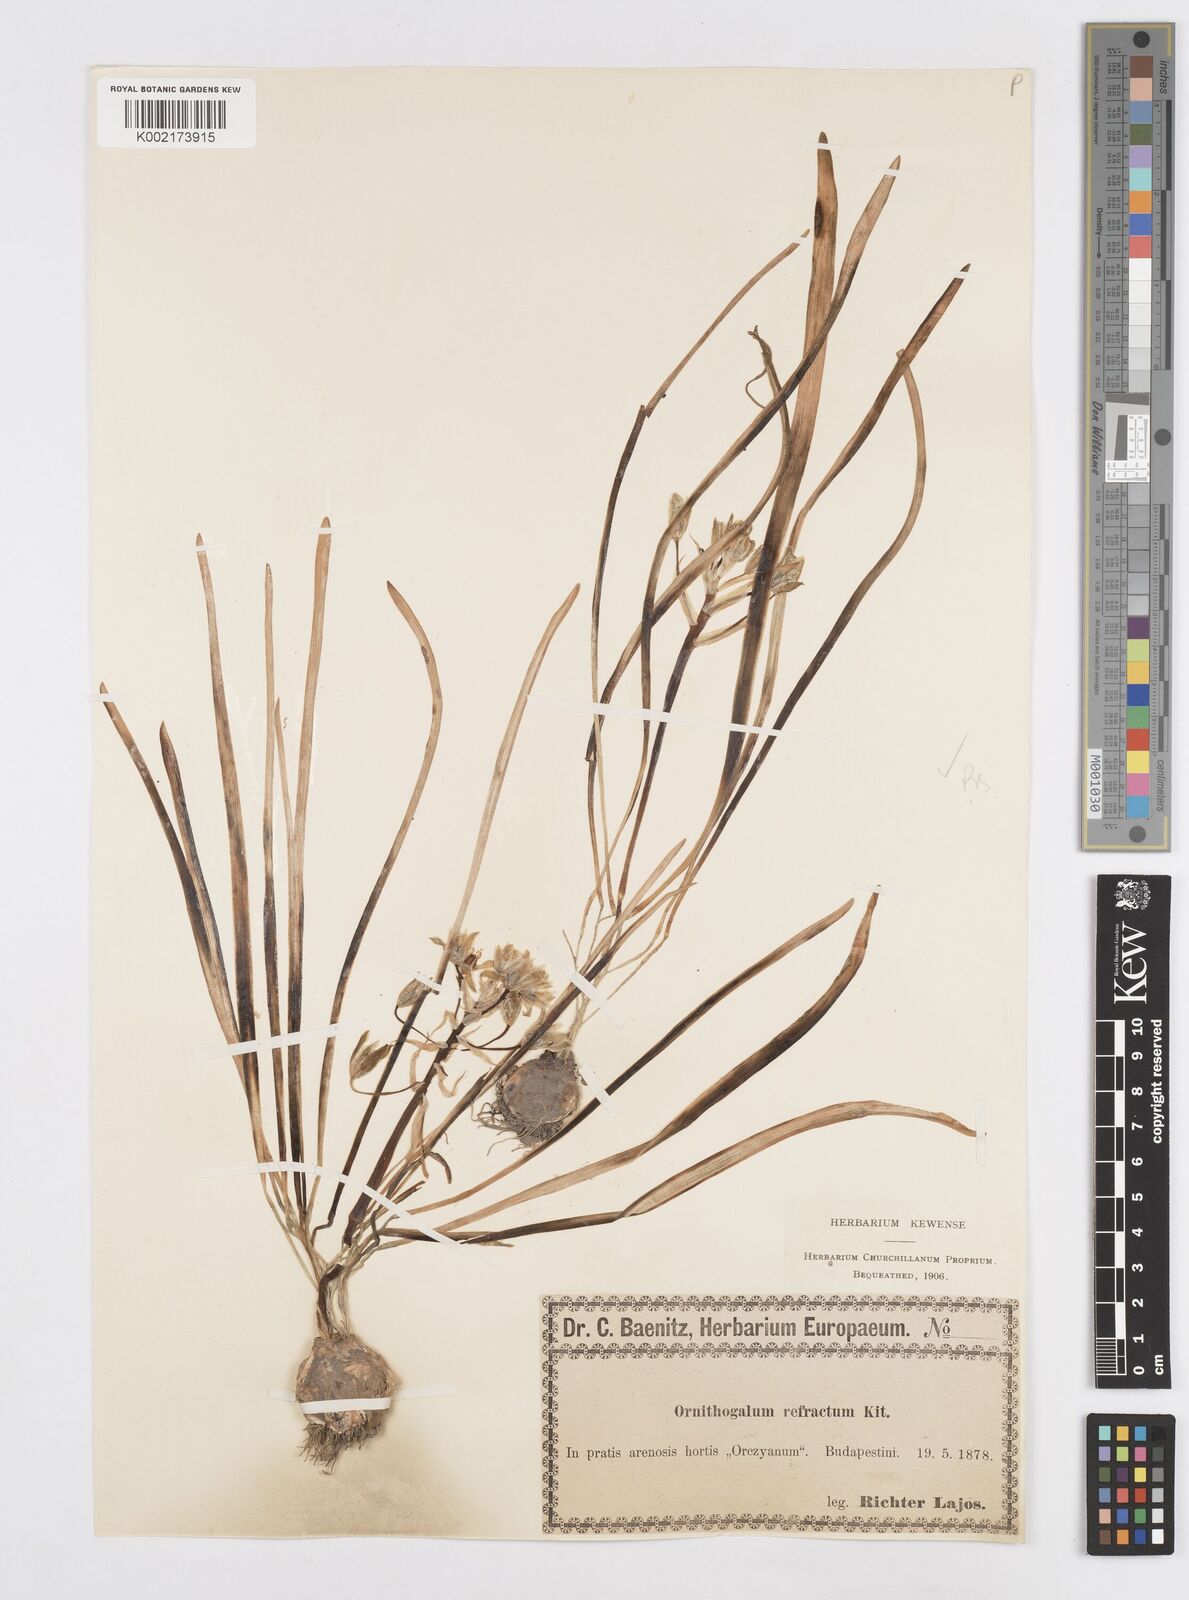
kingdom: Plantae
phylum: Tracheophyta
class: Liliopsida
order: Asparagales
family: Asparagaceae
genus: Ornithogalum
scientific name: Ornithogalum refractum
